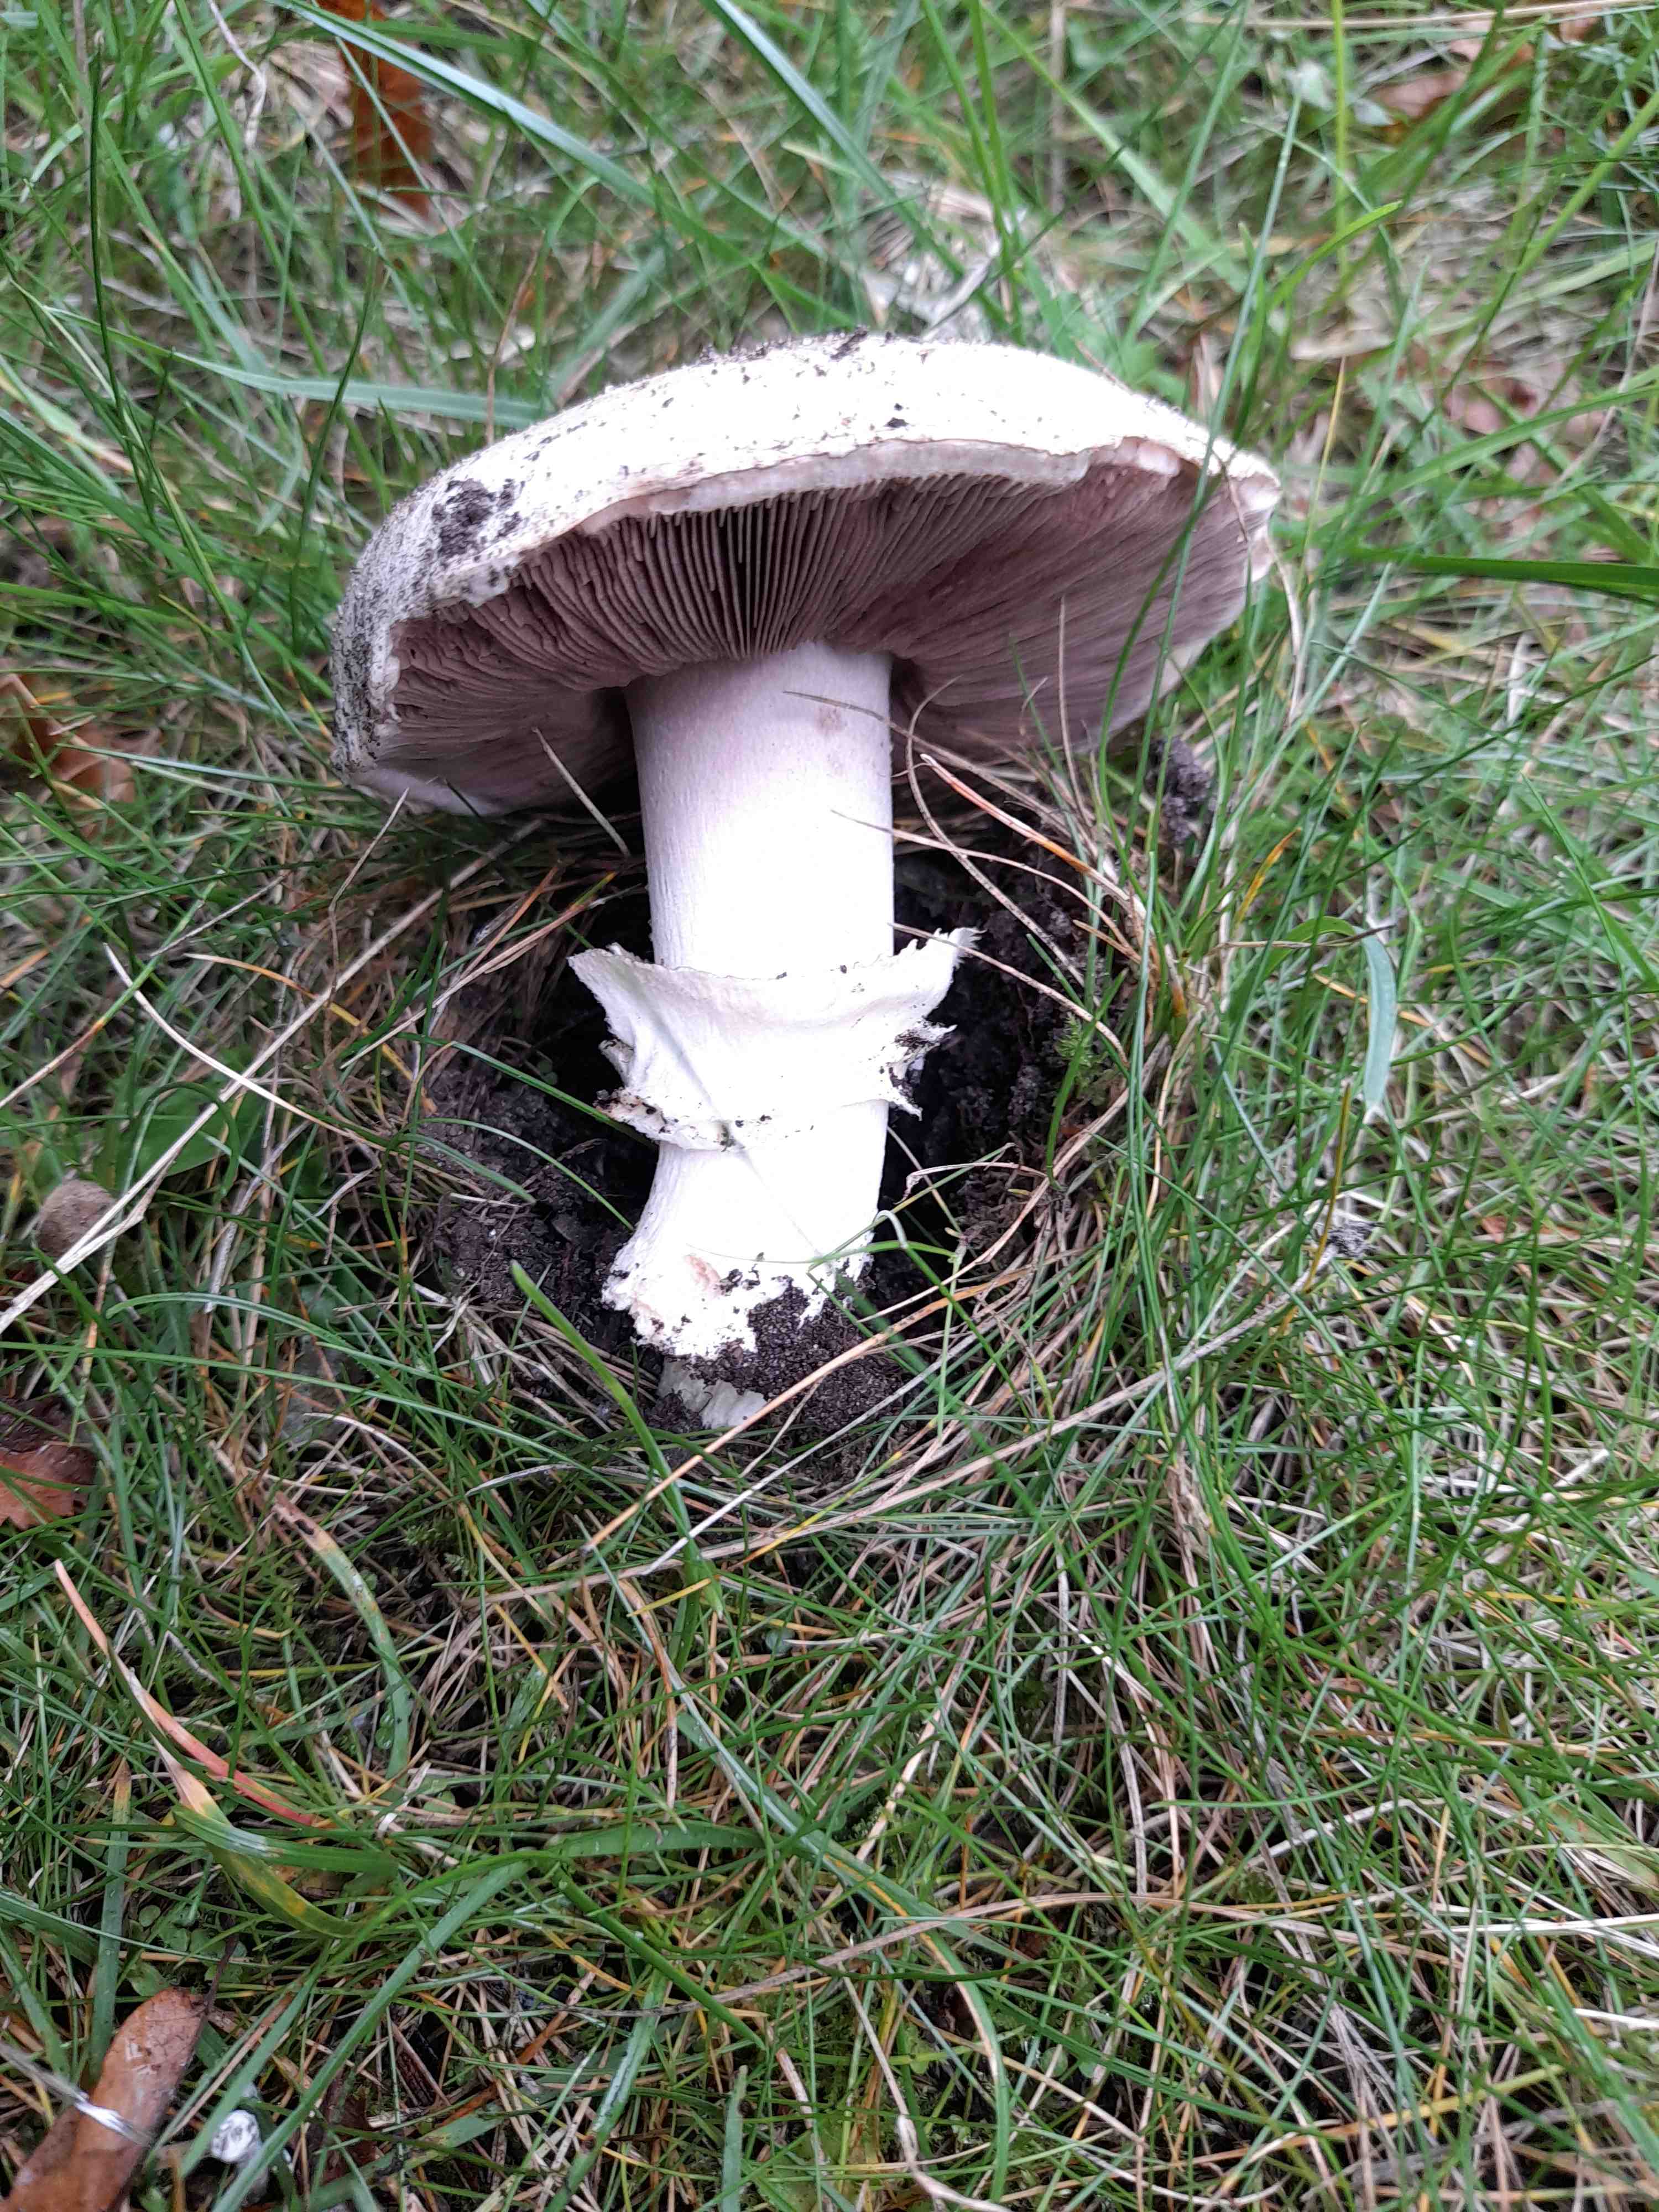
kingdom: Fungi
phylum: Basidiomycota
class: Agaricomycetes
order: Agaricales
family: Agaricaceae
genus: Agaricus
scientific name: Agaricus bitorquis
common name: vej-champignon
